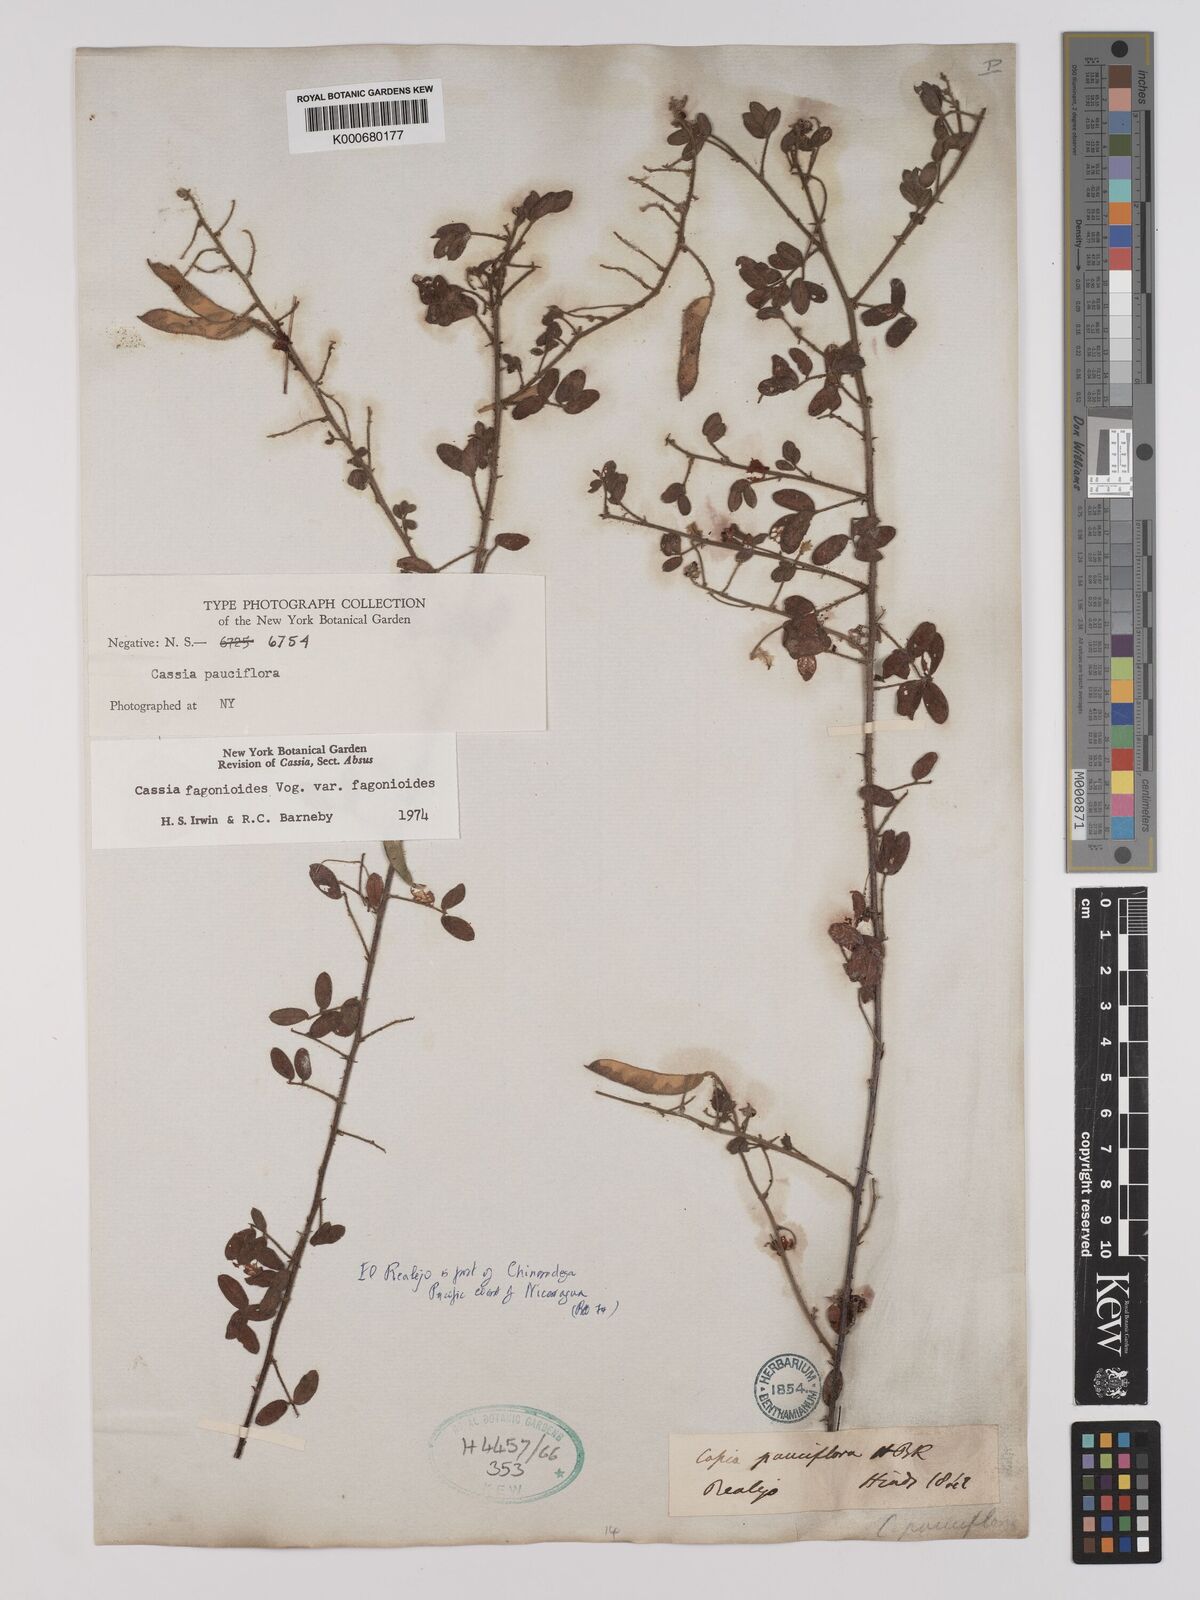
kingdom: Plantae
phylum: Tracheophyta
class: Magnoliopsida
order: Fabales
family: Fabaceae
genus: Chamaecrista
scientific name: Chamaecrista fagonioides
